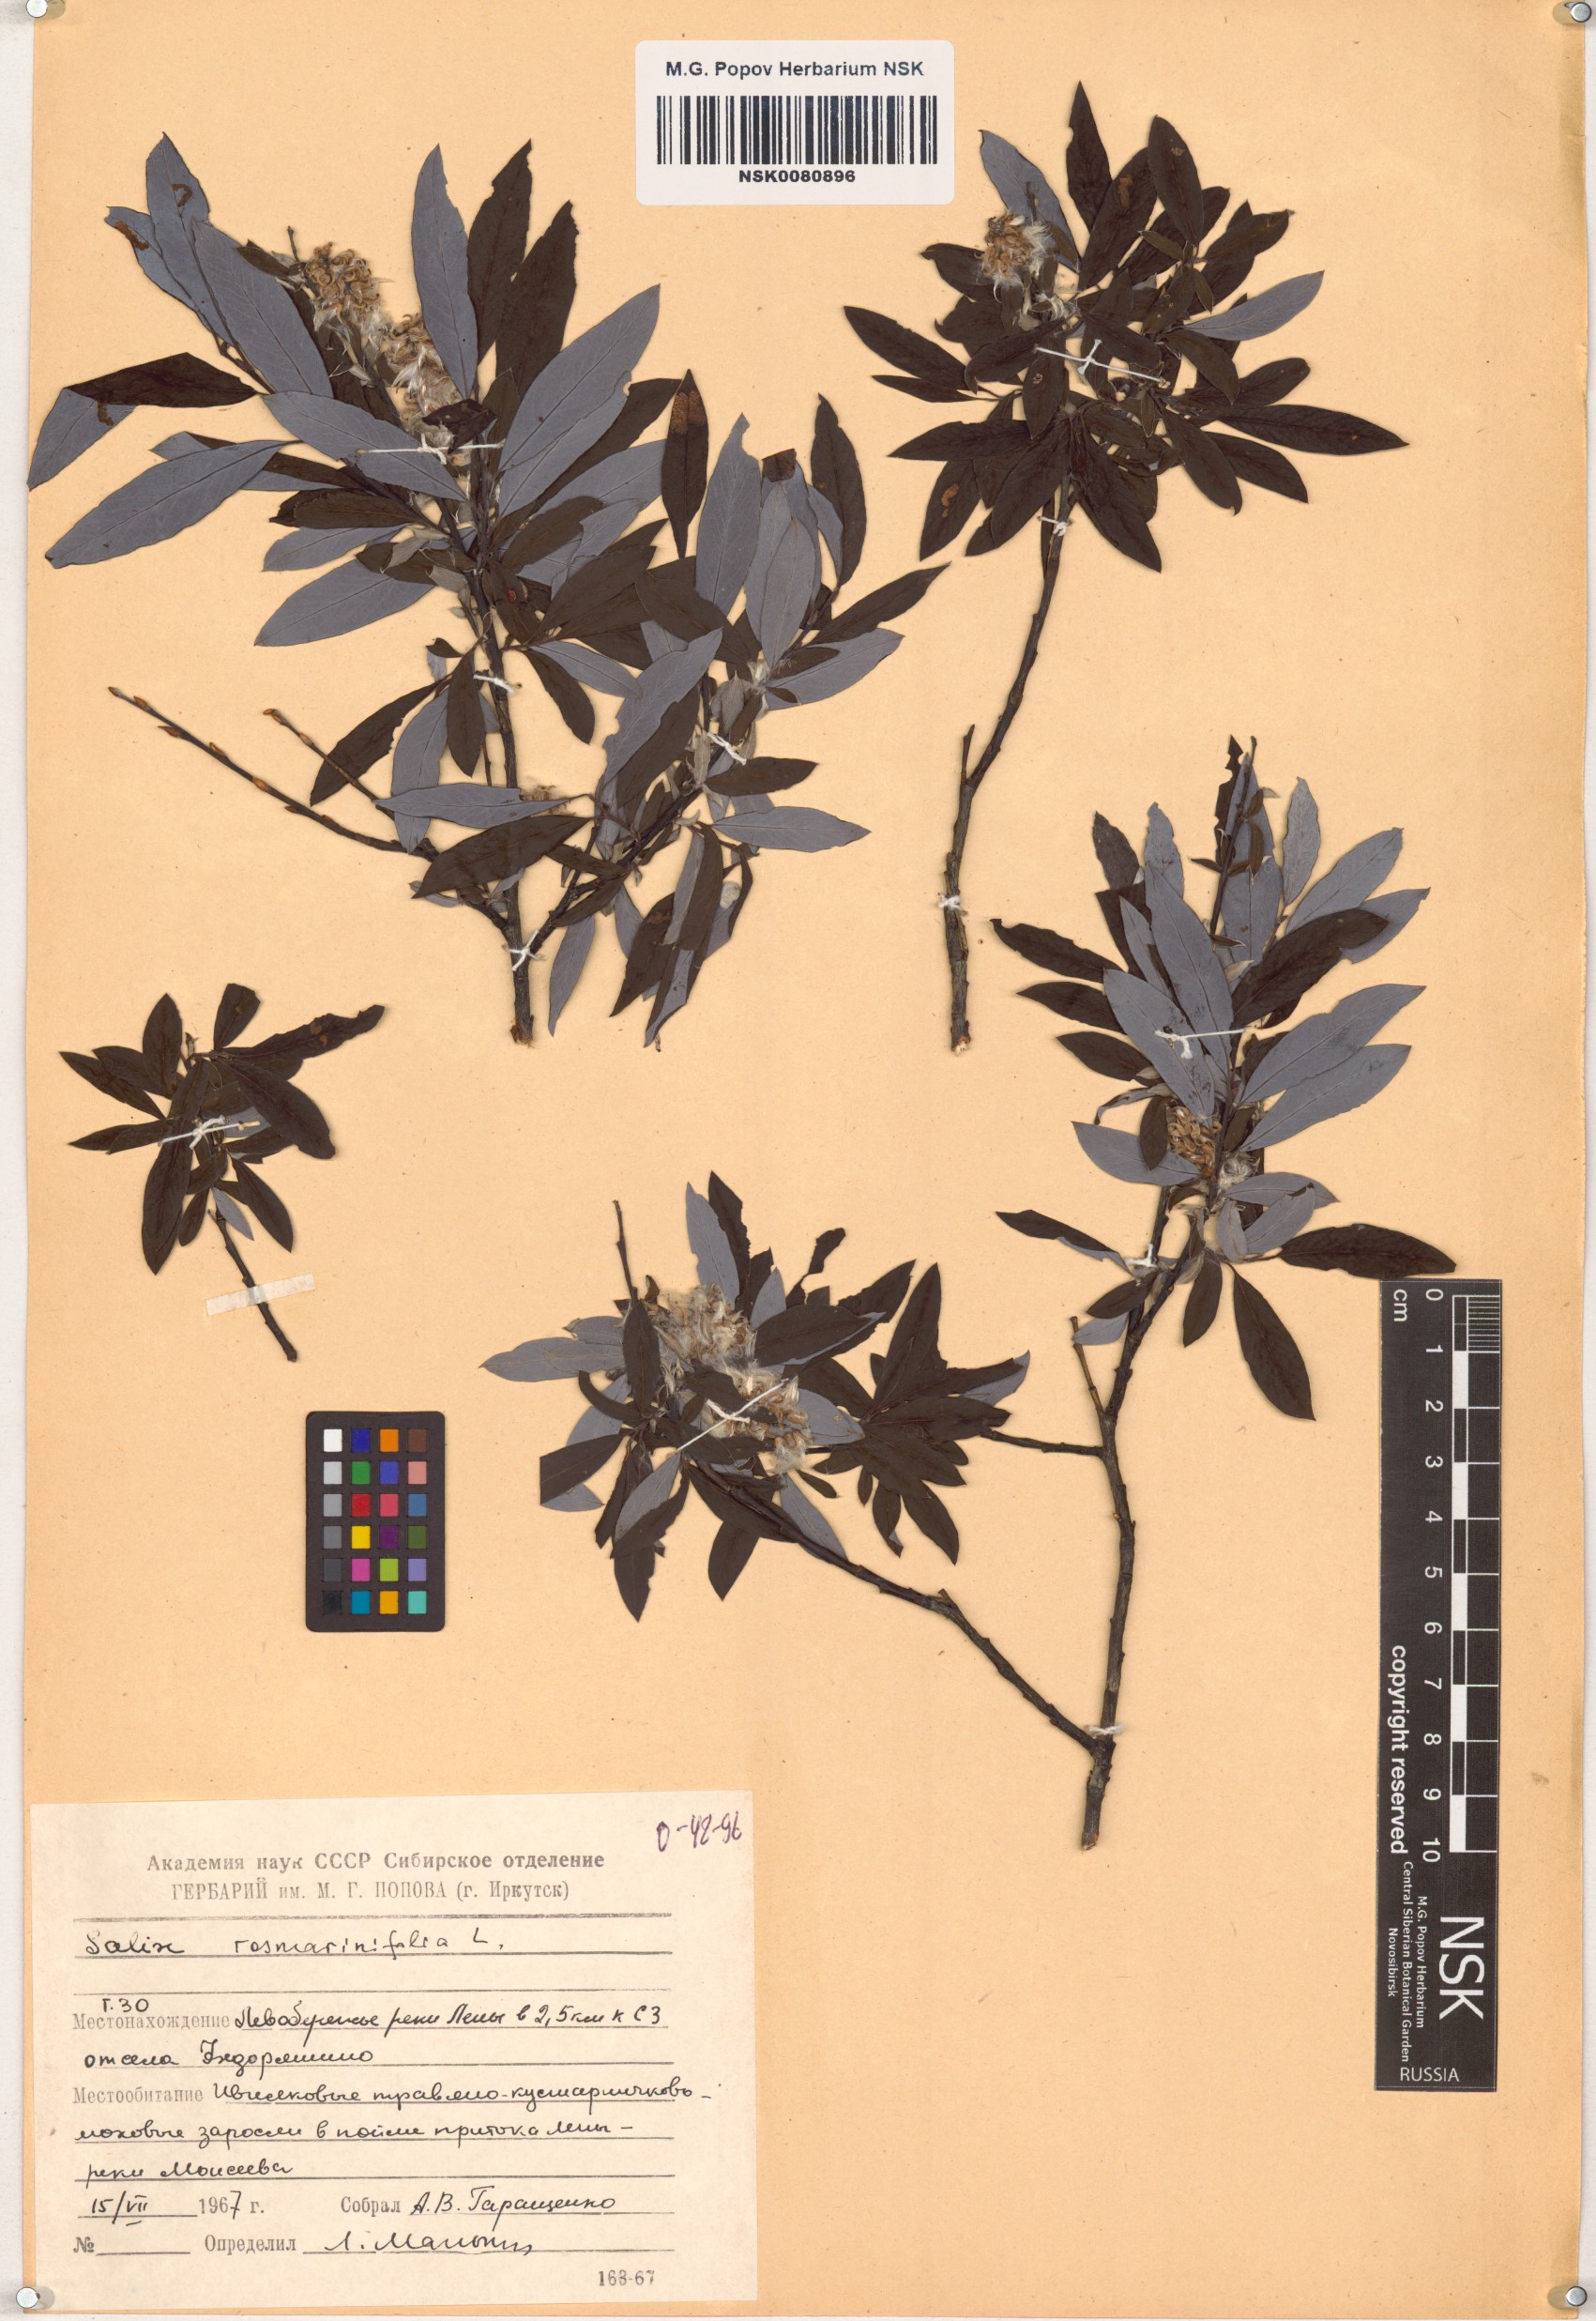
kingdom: Plantae
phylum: Tracheophyta
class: Magnoliopsida
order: Malpighiales
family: Salicaceae
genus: Salix
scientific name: Salix rosmarinifolia
